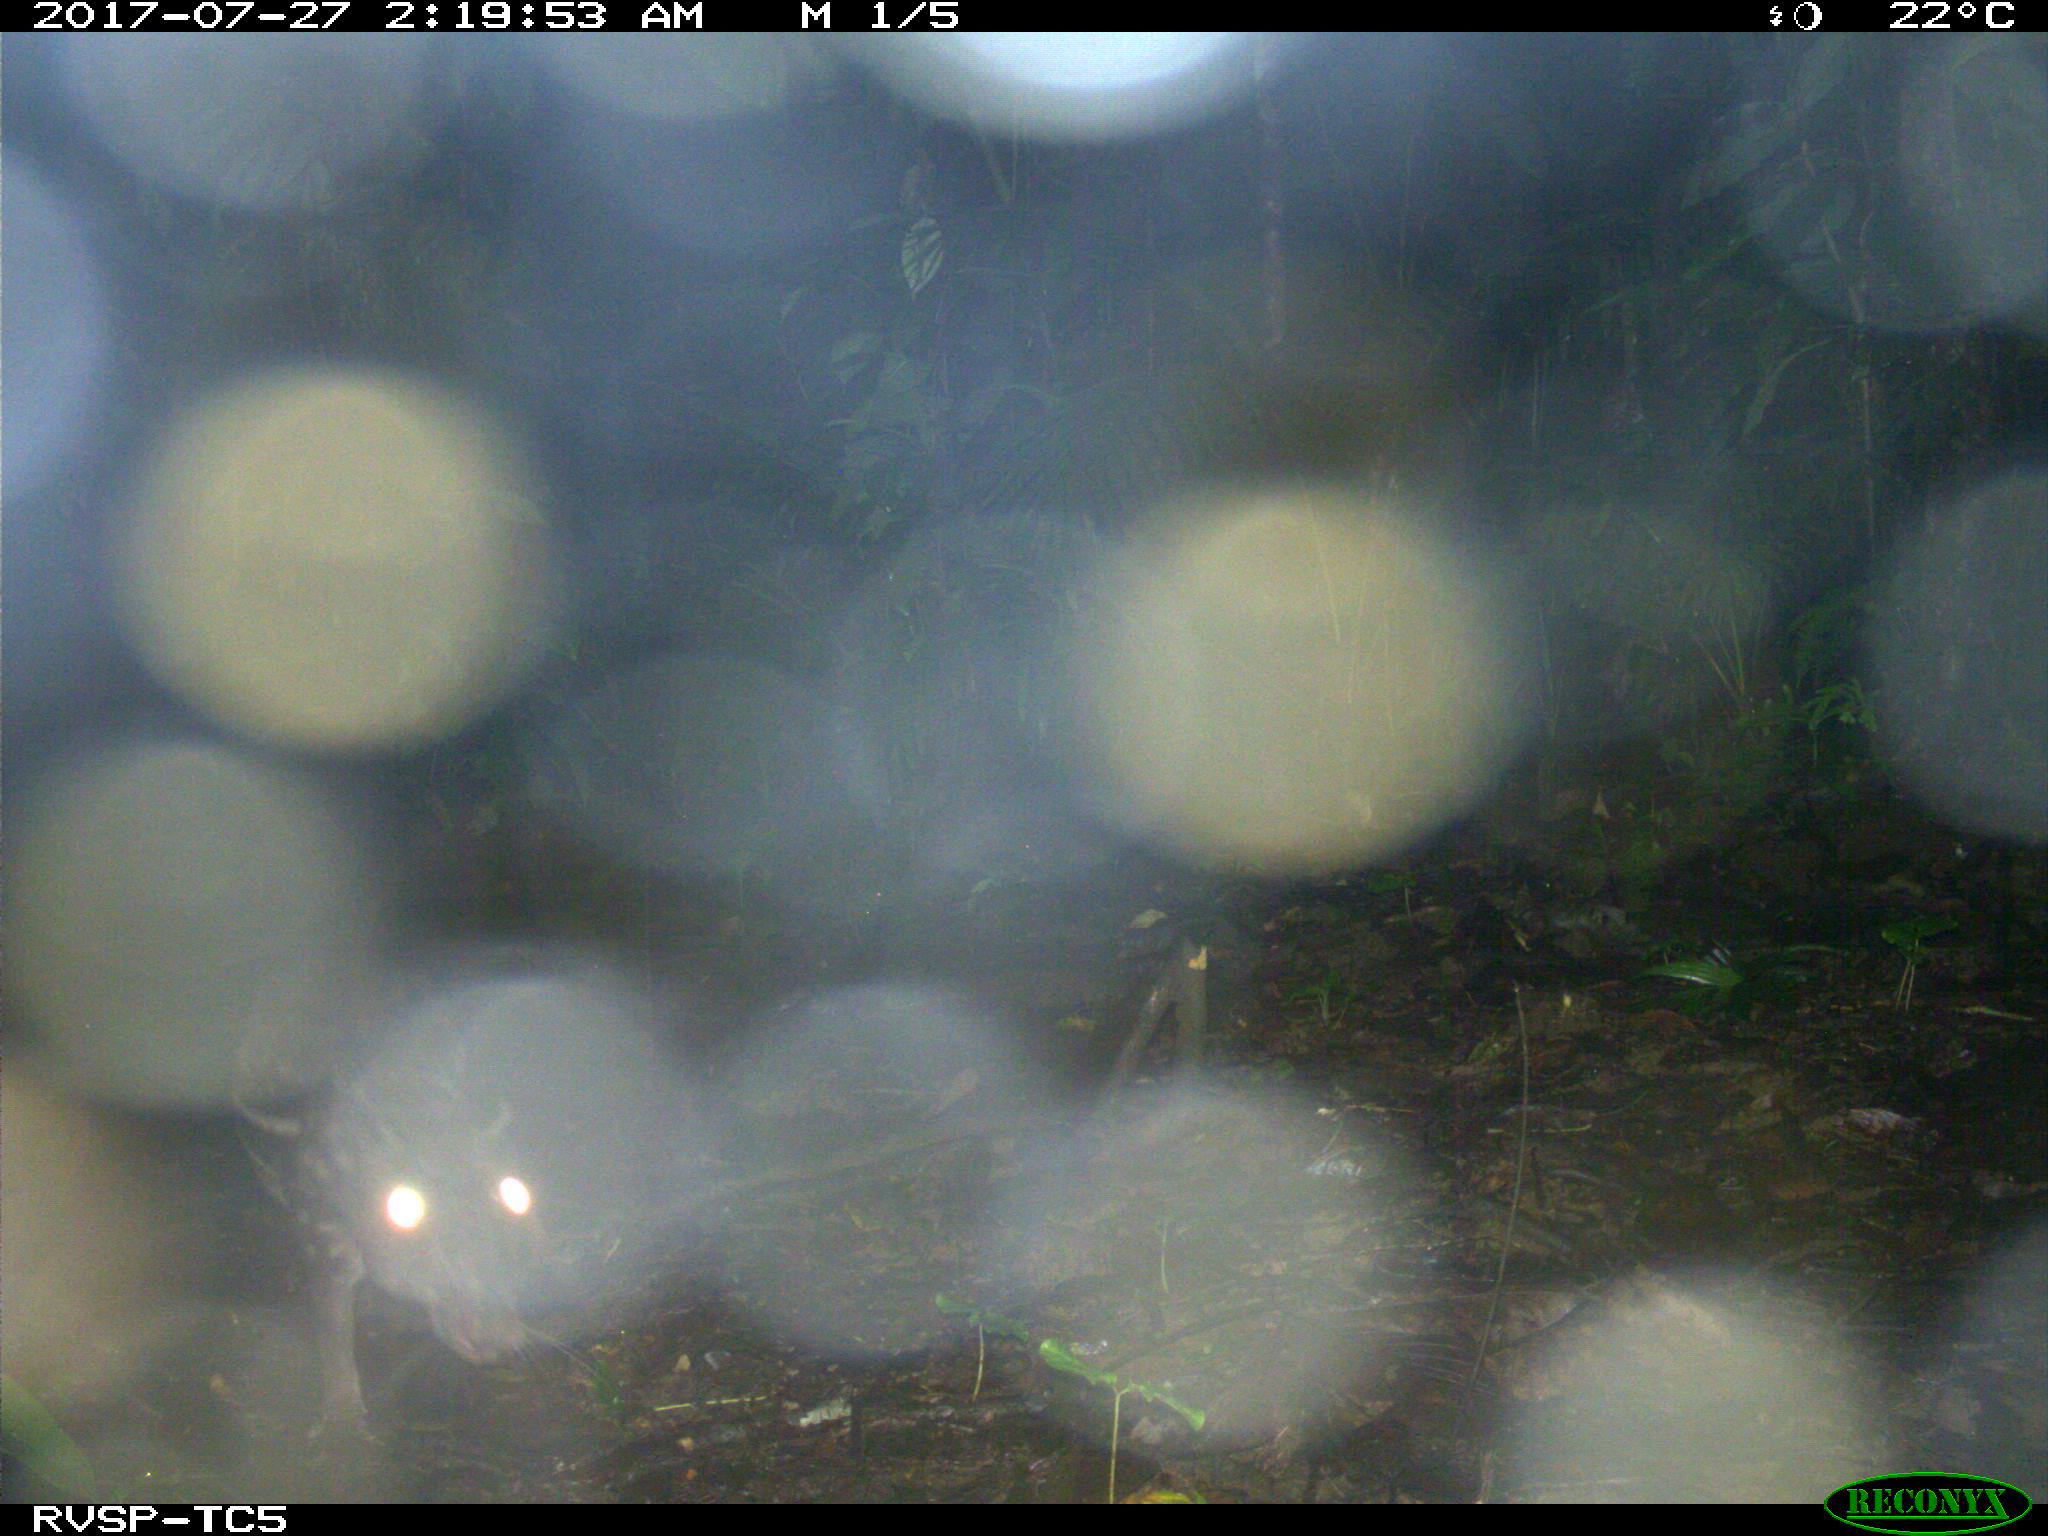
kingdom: Animalia
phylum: Chordata
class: Mammalia
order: Rodentia
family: Cuniculidae
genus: Cuniculus
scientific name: Cuniculus paca
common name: Lowland paca
